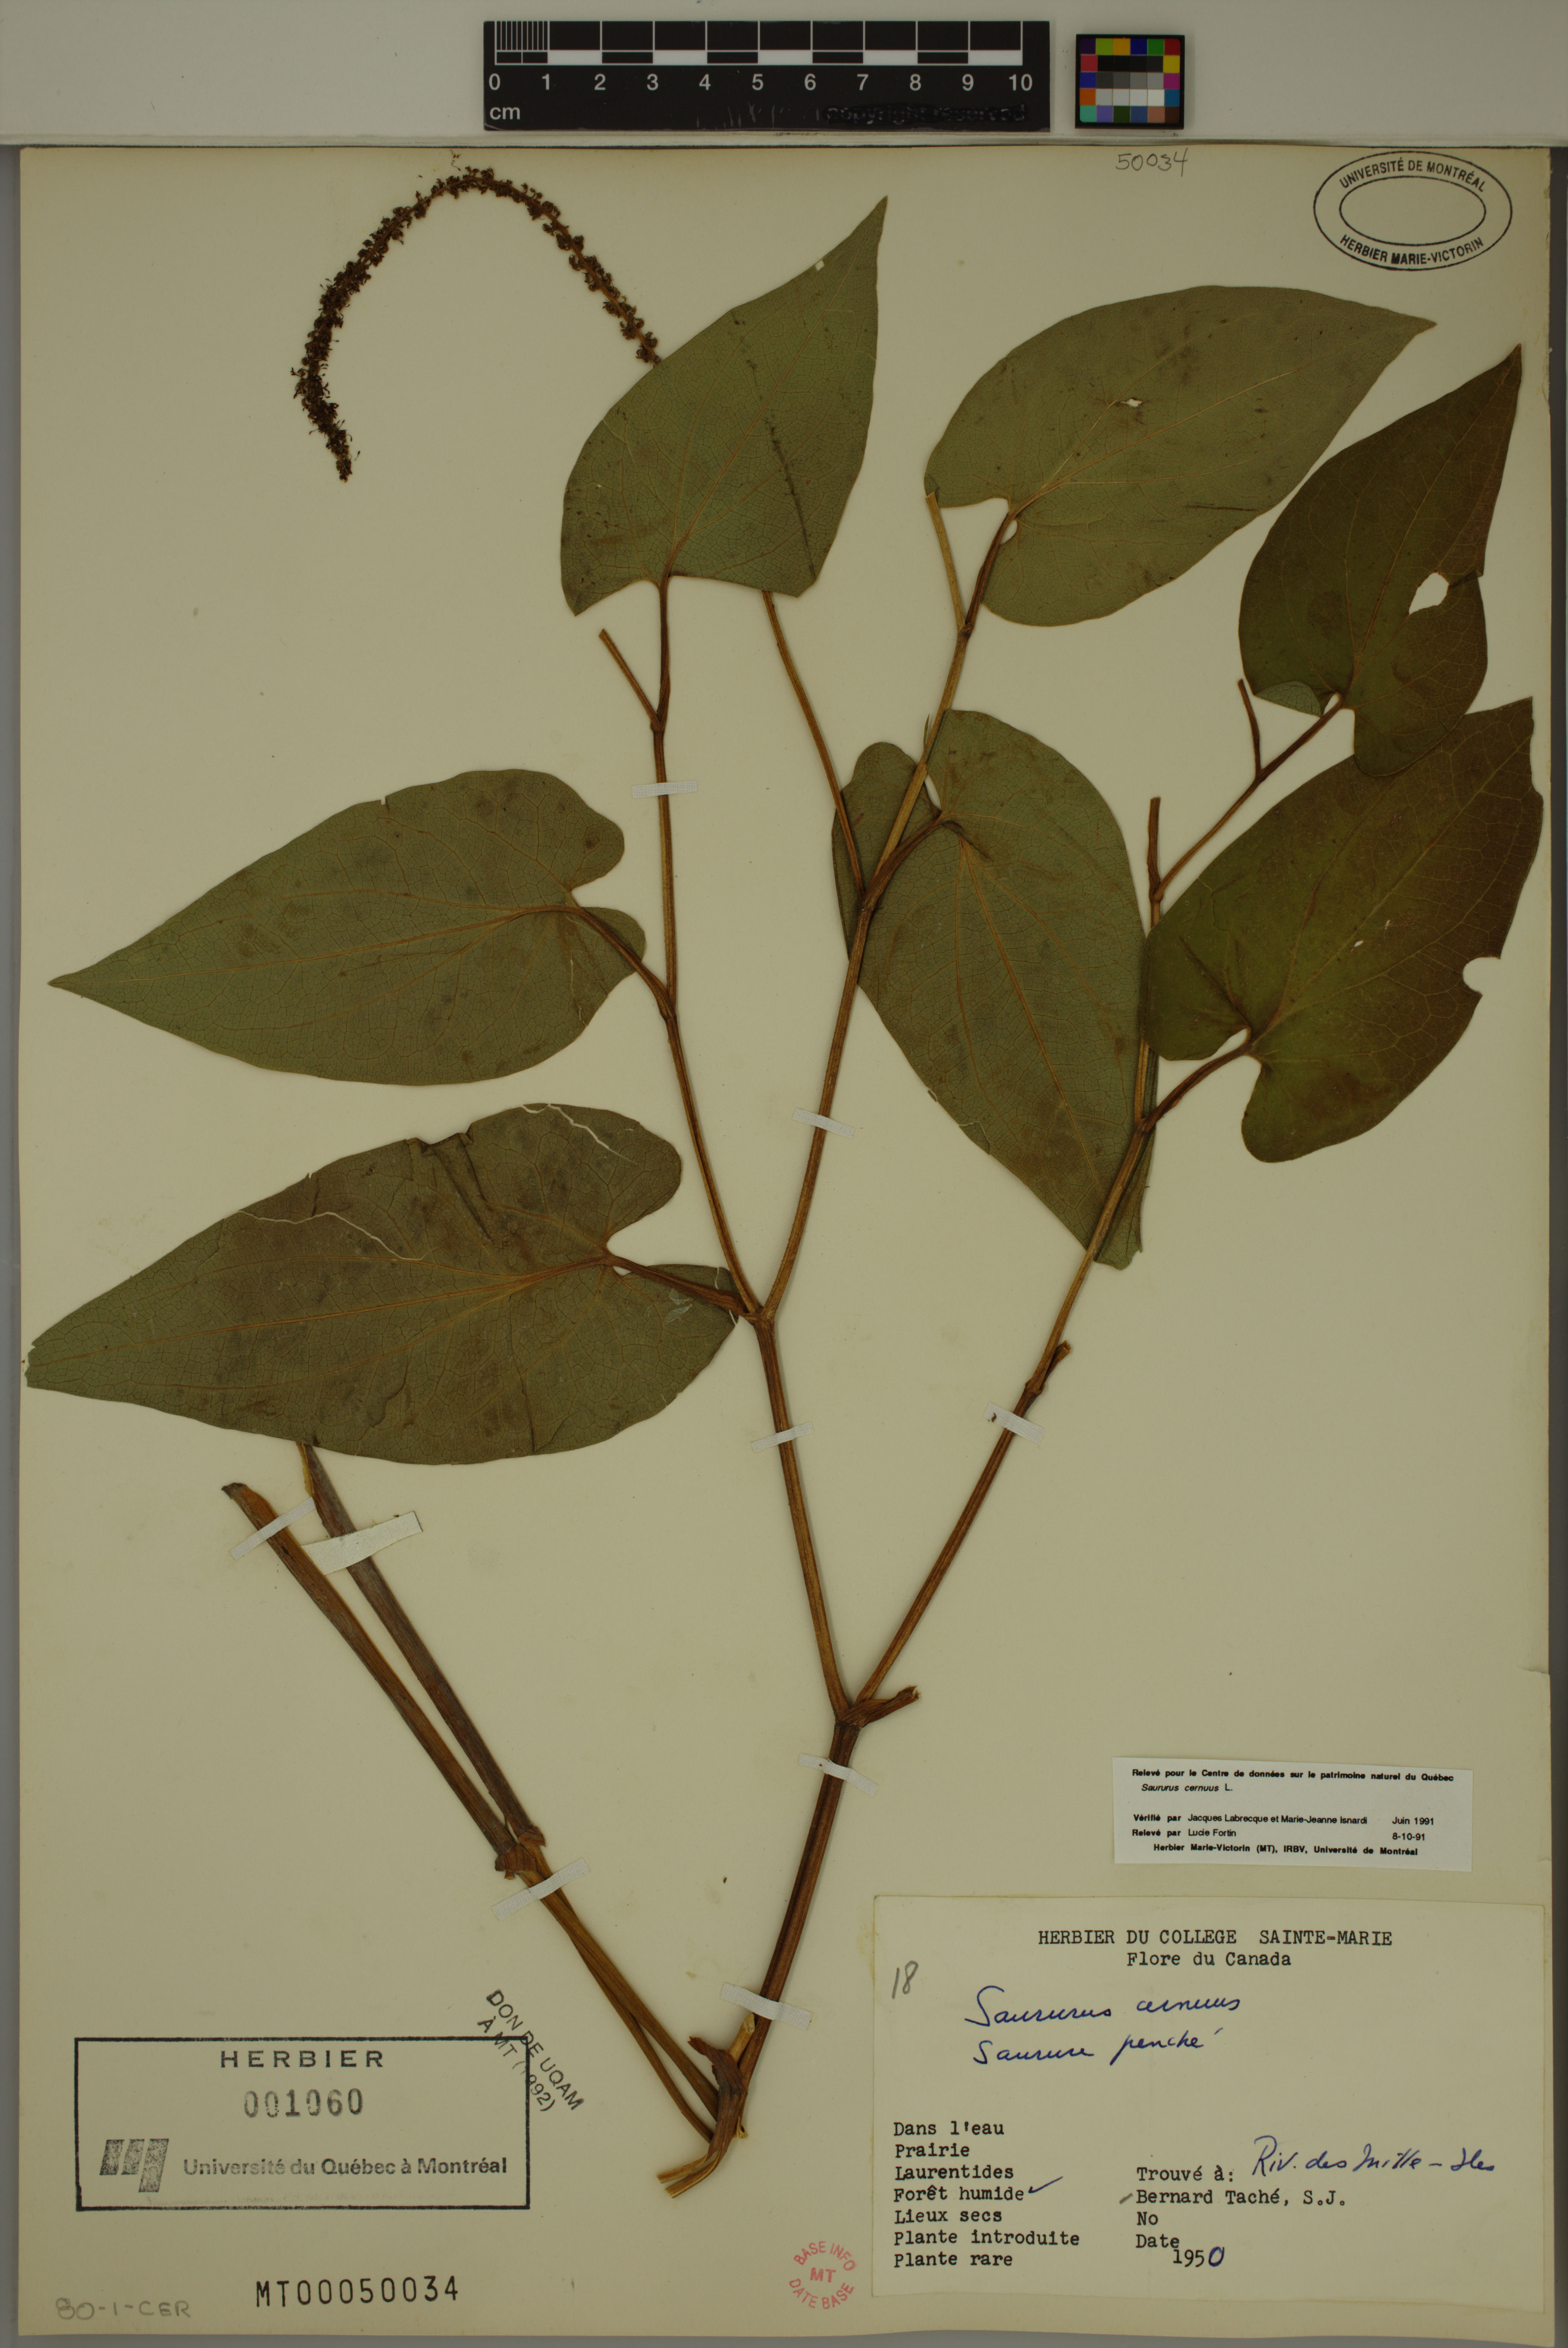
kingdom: Plantae
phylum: Tracheophyta
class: Magnoliopsida
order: Piperales
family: Saururaceae
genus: Saururus
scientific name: Saururus cernuus
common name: Lizard's-tail
